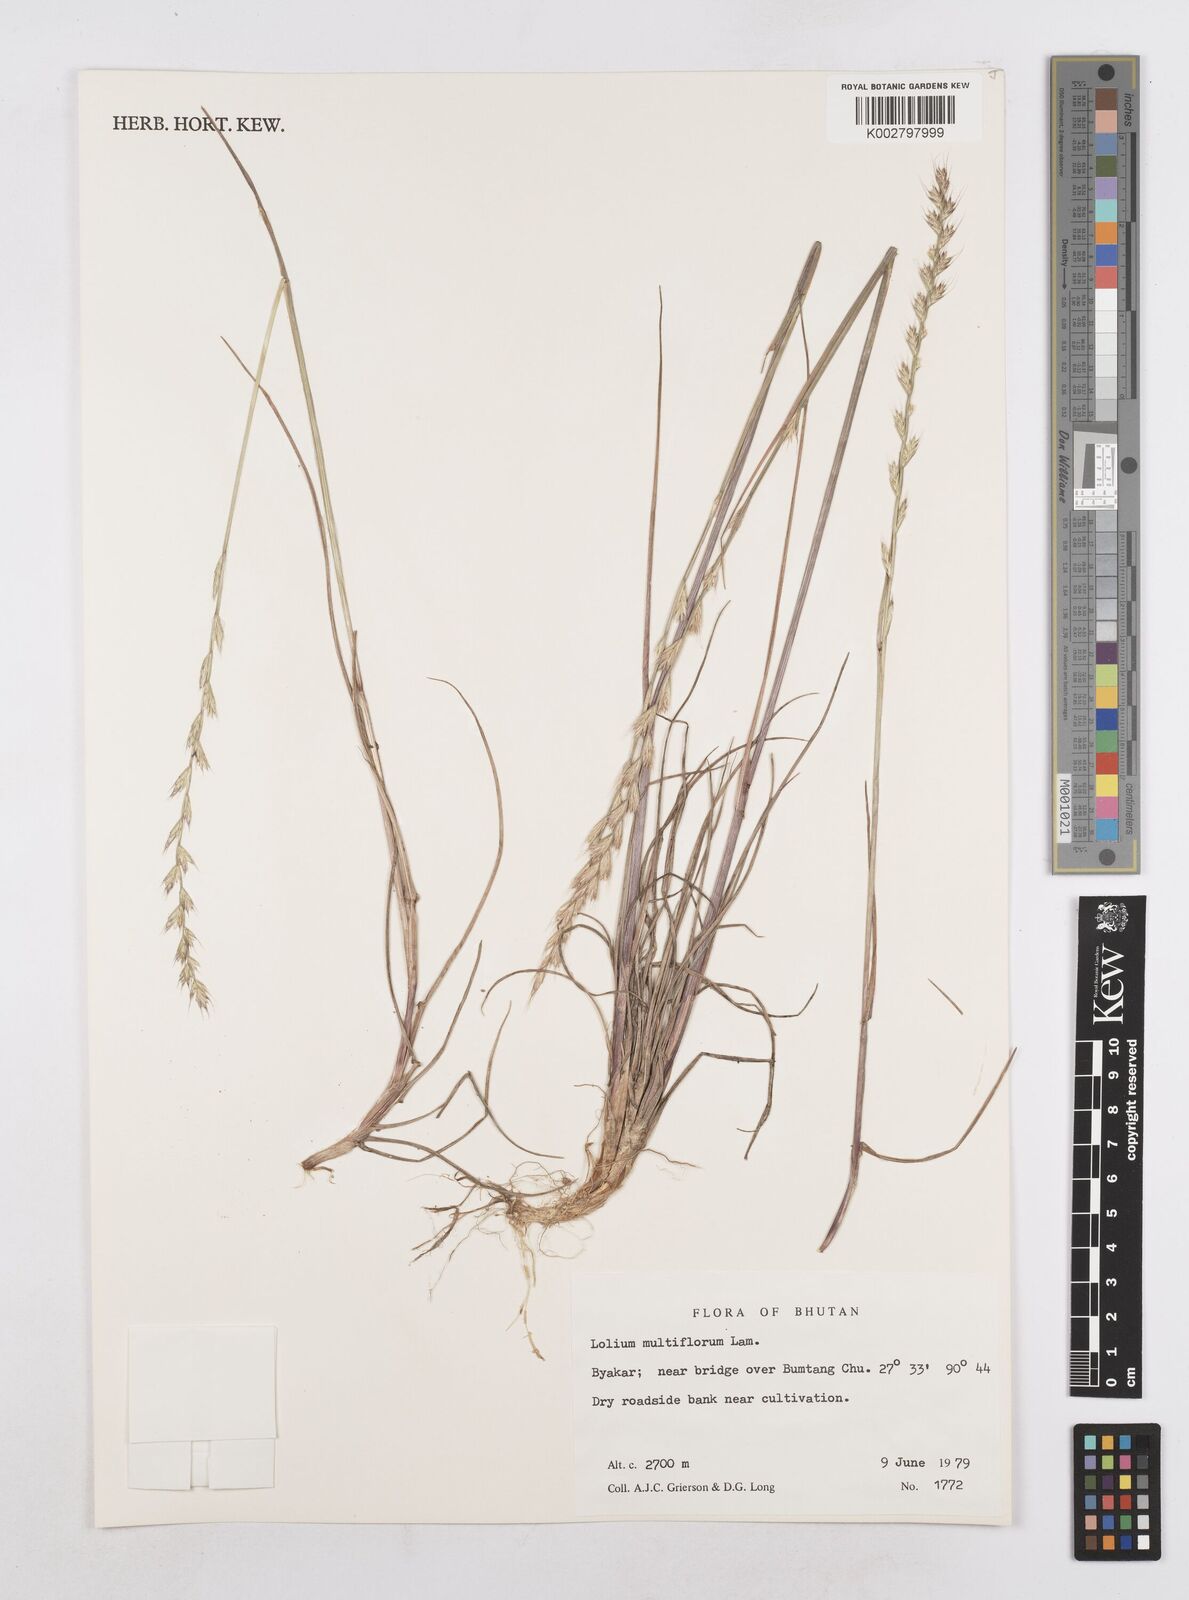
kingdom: Plantae
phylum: Tracheophyta
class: Liliopsida
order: Poales
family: Poaceae
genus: Lolium
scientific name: Lolium multiflorum
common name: Annual ryegrass
